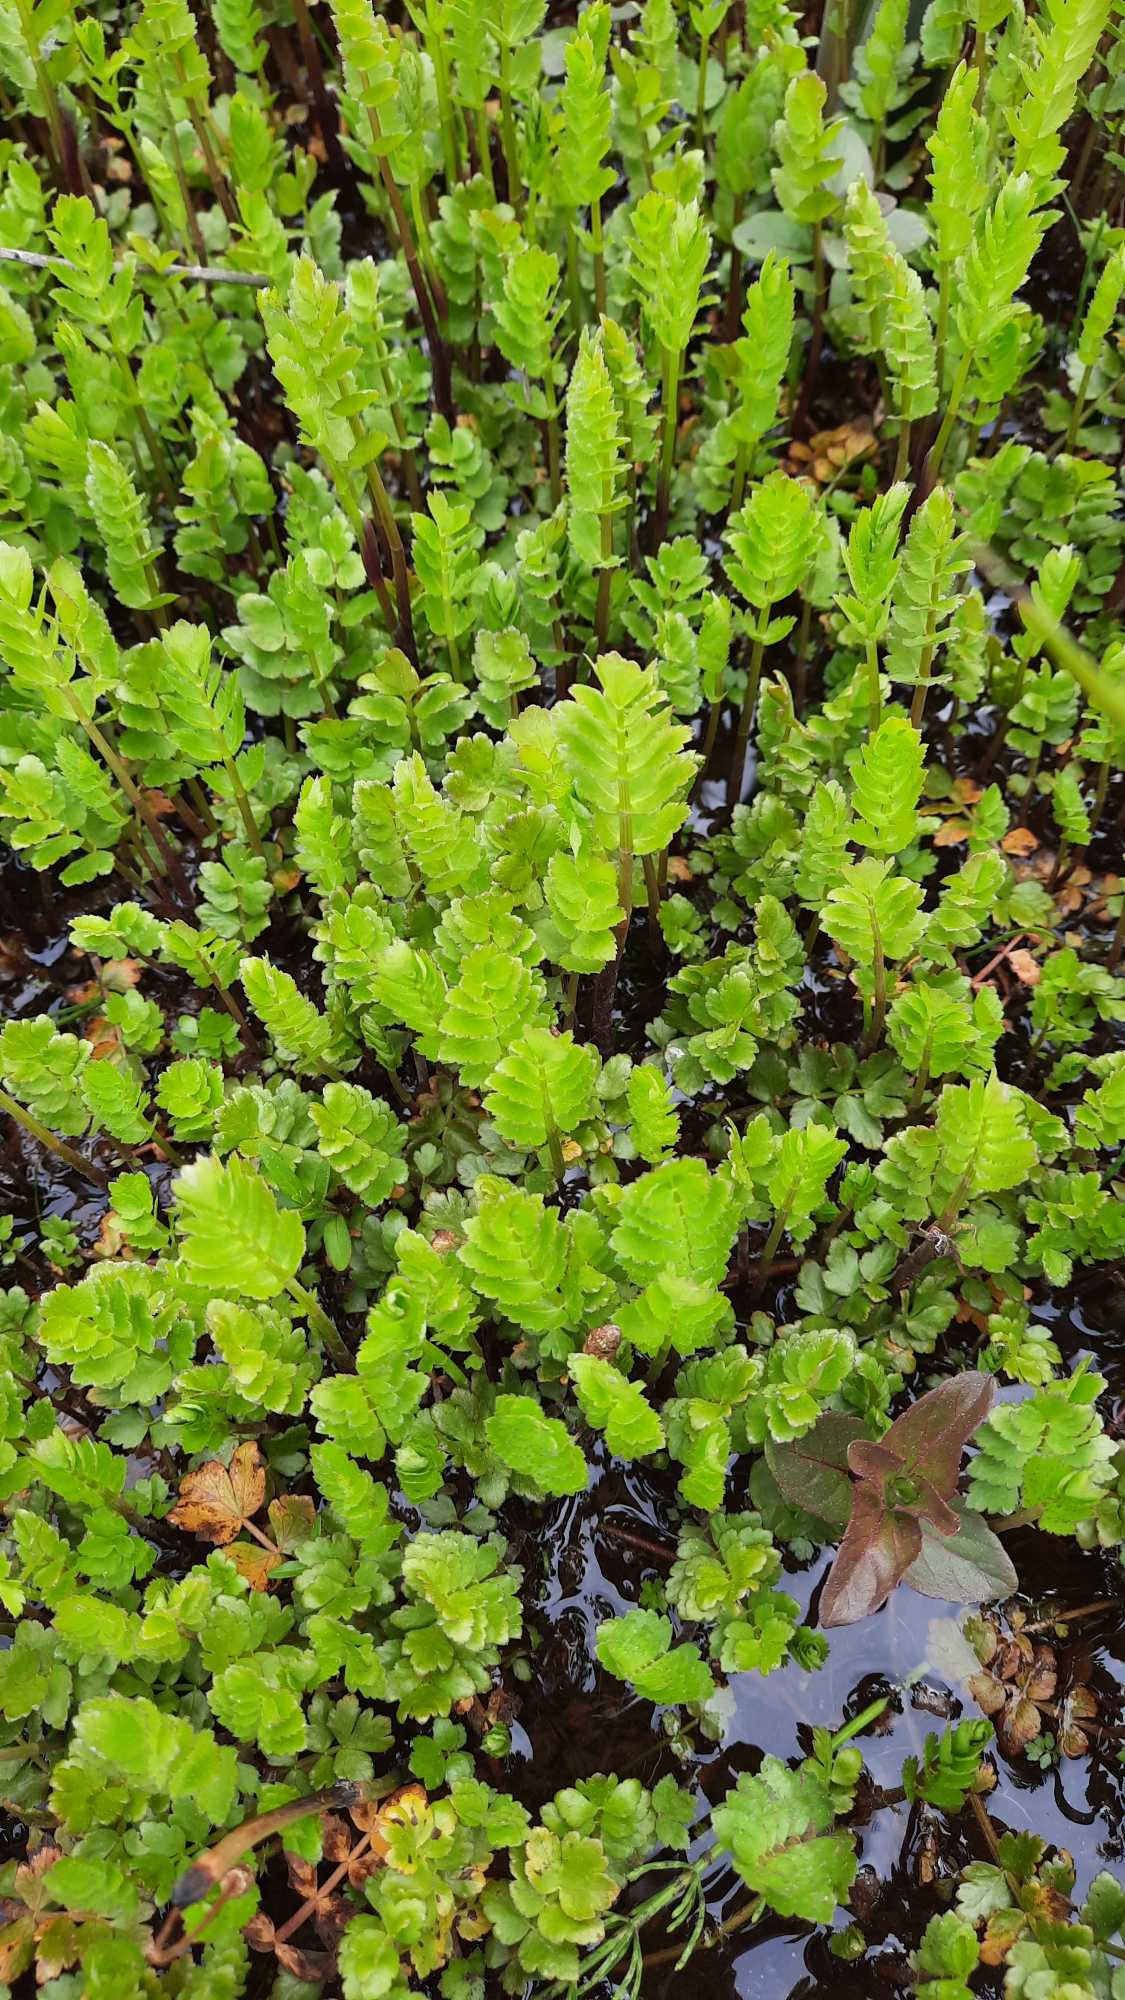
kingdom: Plantae
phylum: Tracheophyta
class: Magnoliopsida
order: Apiales
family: Apiaceae
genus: Berula
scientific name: Berula erecta
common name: Sideskærm
